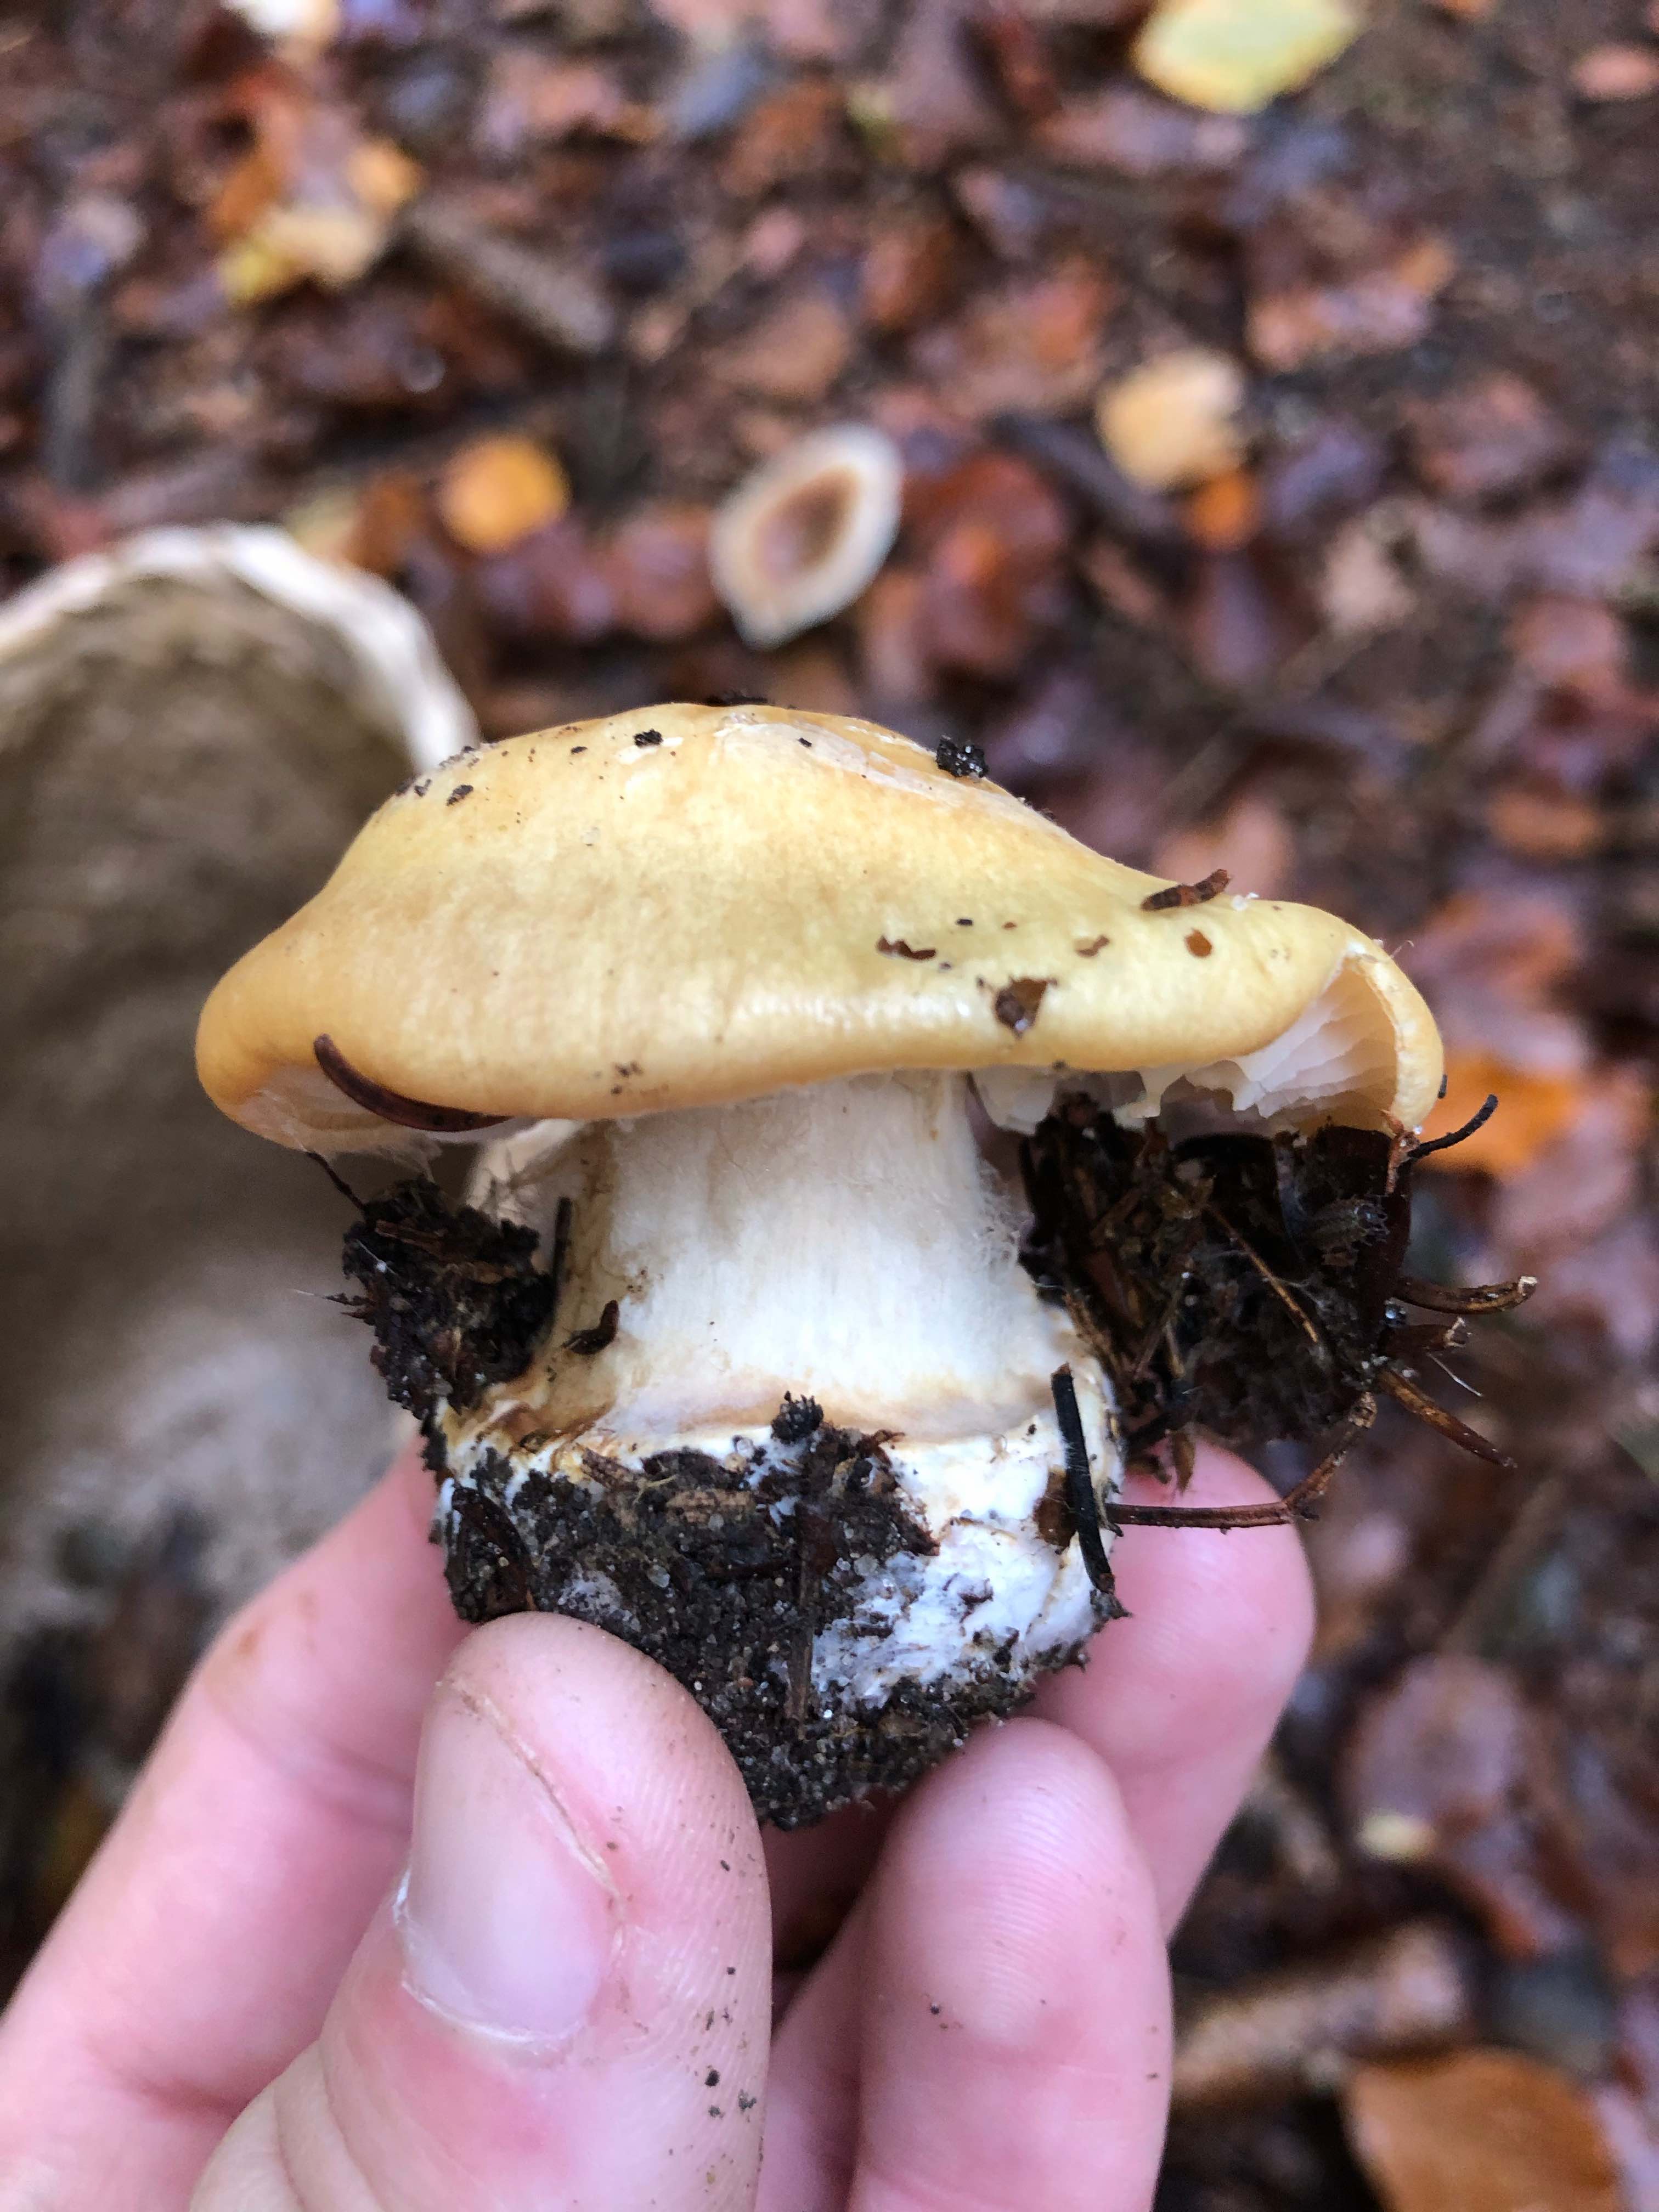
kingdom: Fungi
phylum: Basidiomycota
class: Agaricomycetes
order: Agaricales
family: Cortinariaceae
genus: Phlegmacium
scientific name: Phlegmacium xantho-ochraceum
